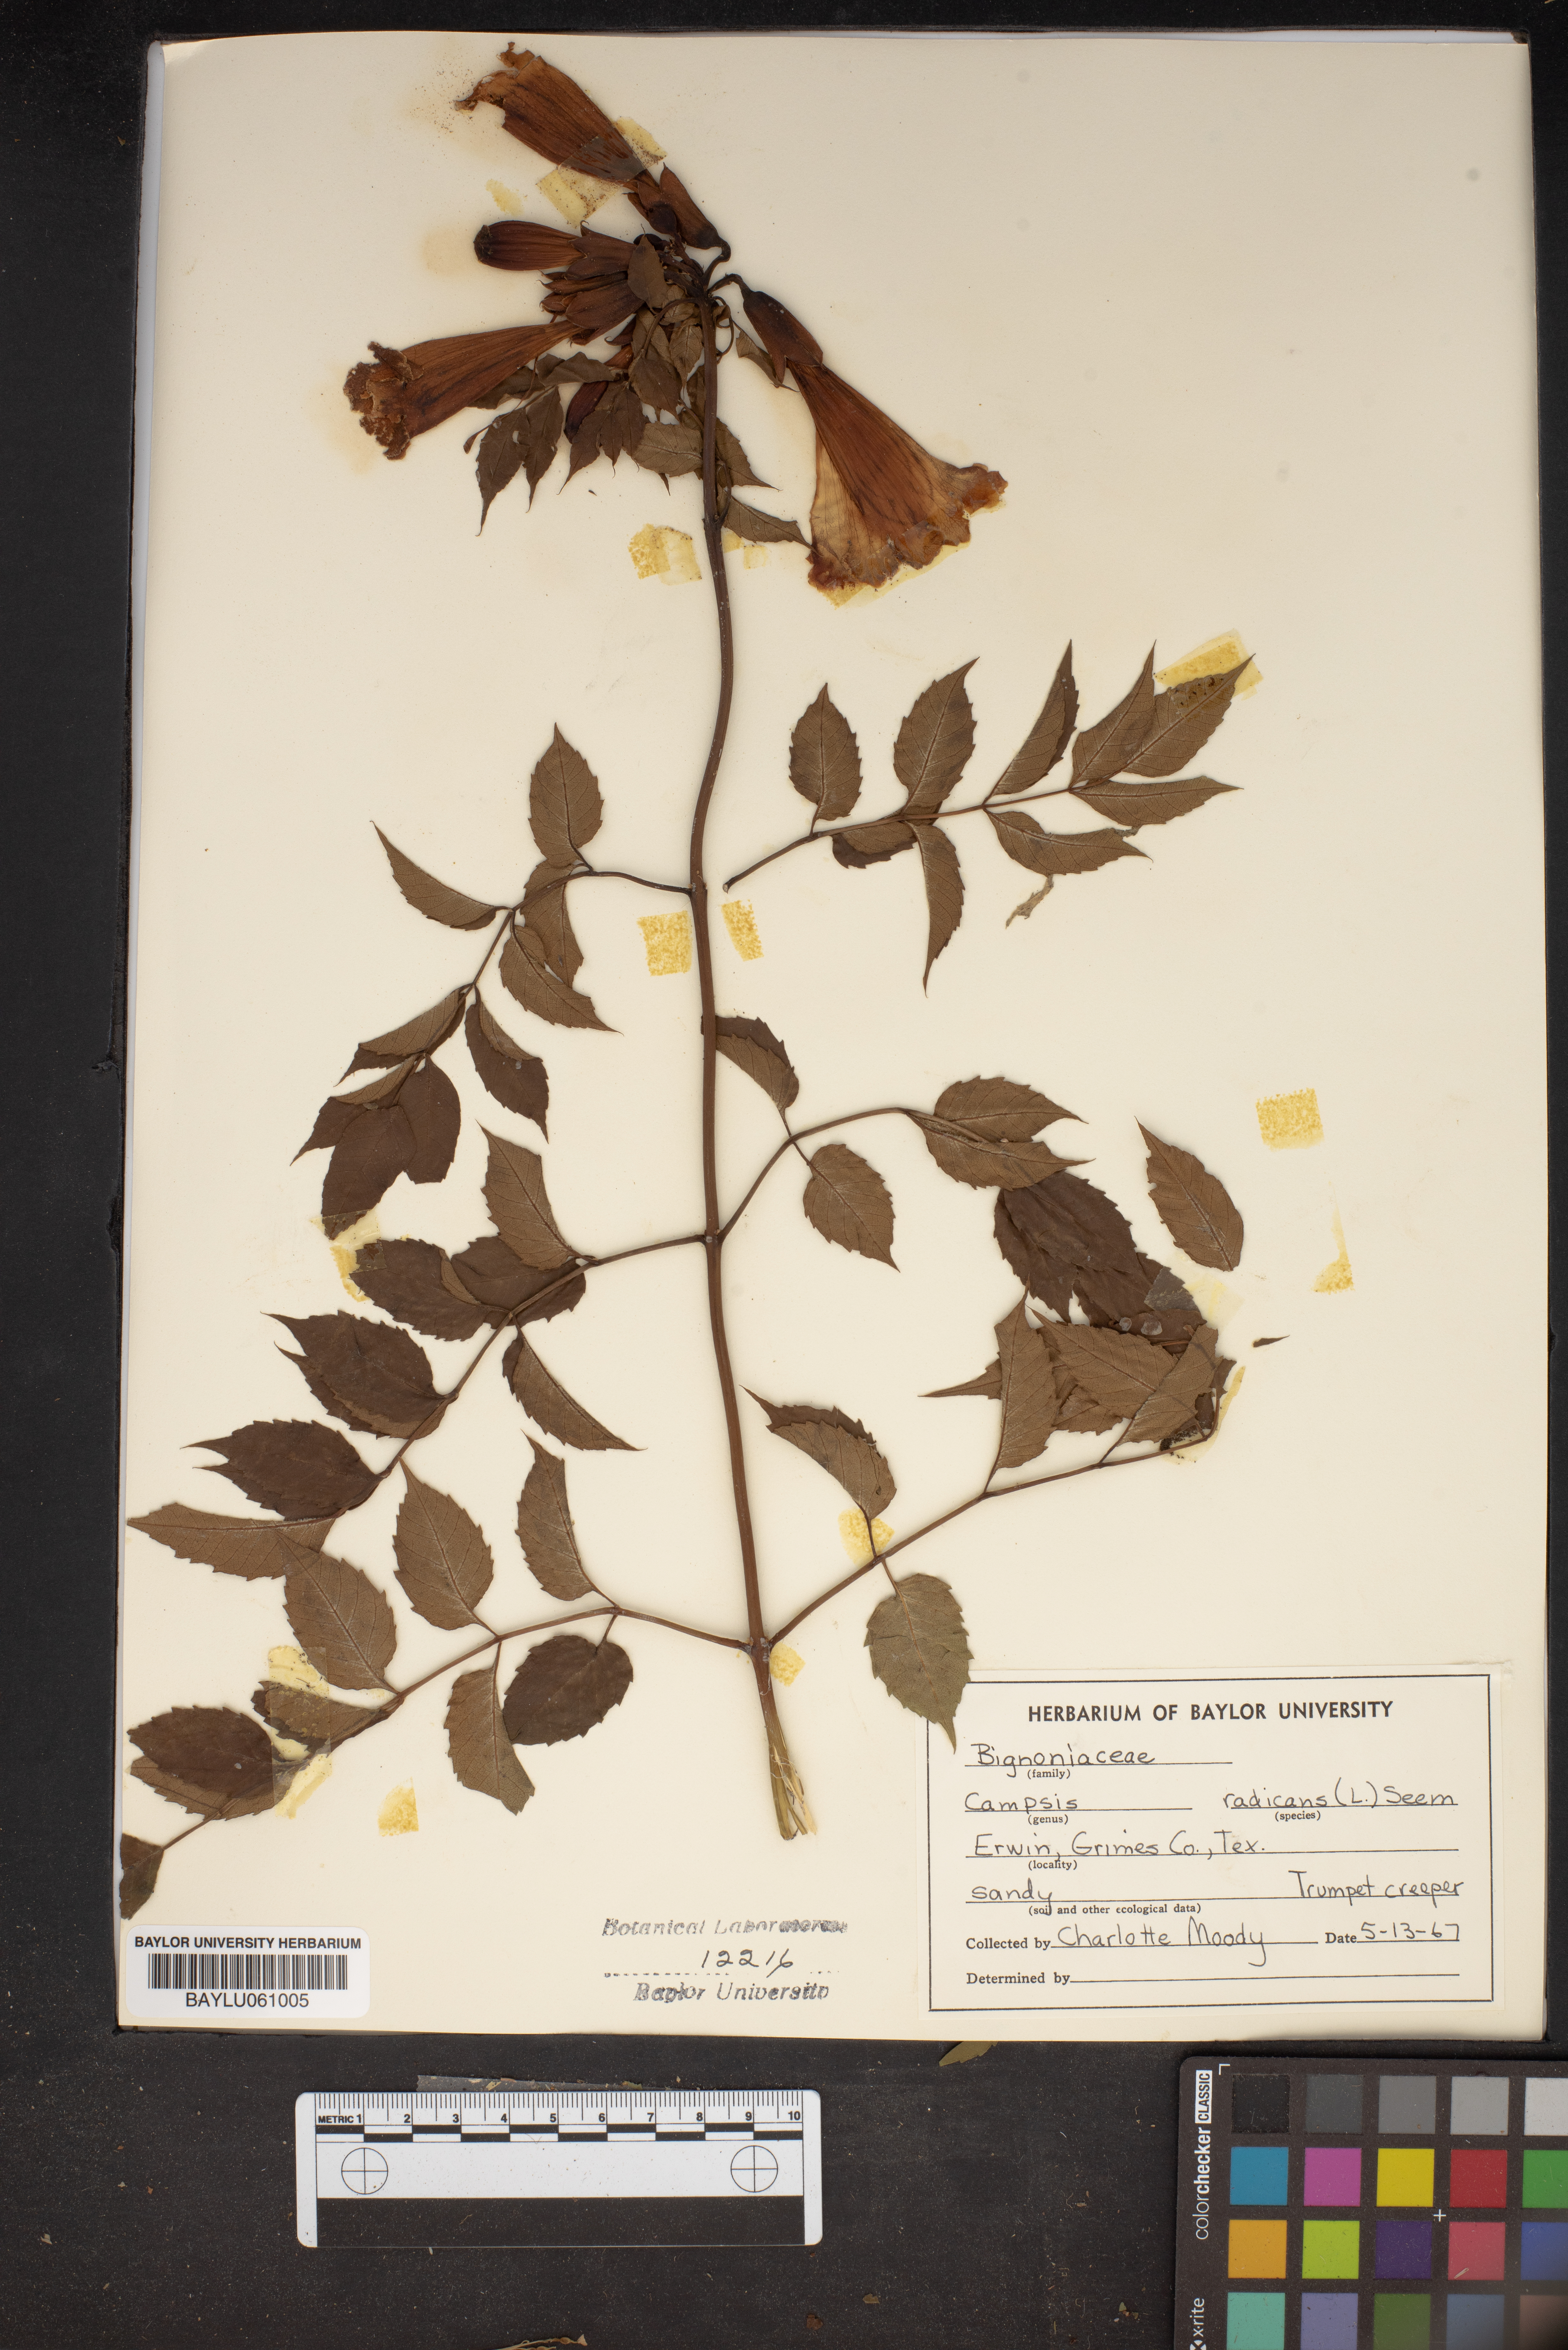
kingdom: Plantae
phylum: Tracheophyta
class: Magnoliopsida
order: Lamiales
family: Bignoniaceae
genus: Campsis
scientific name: Campsis radicans
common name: Trumpet-creeper
